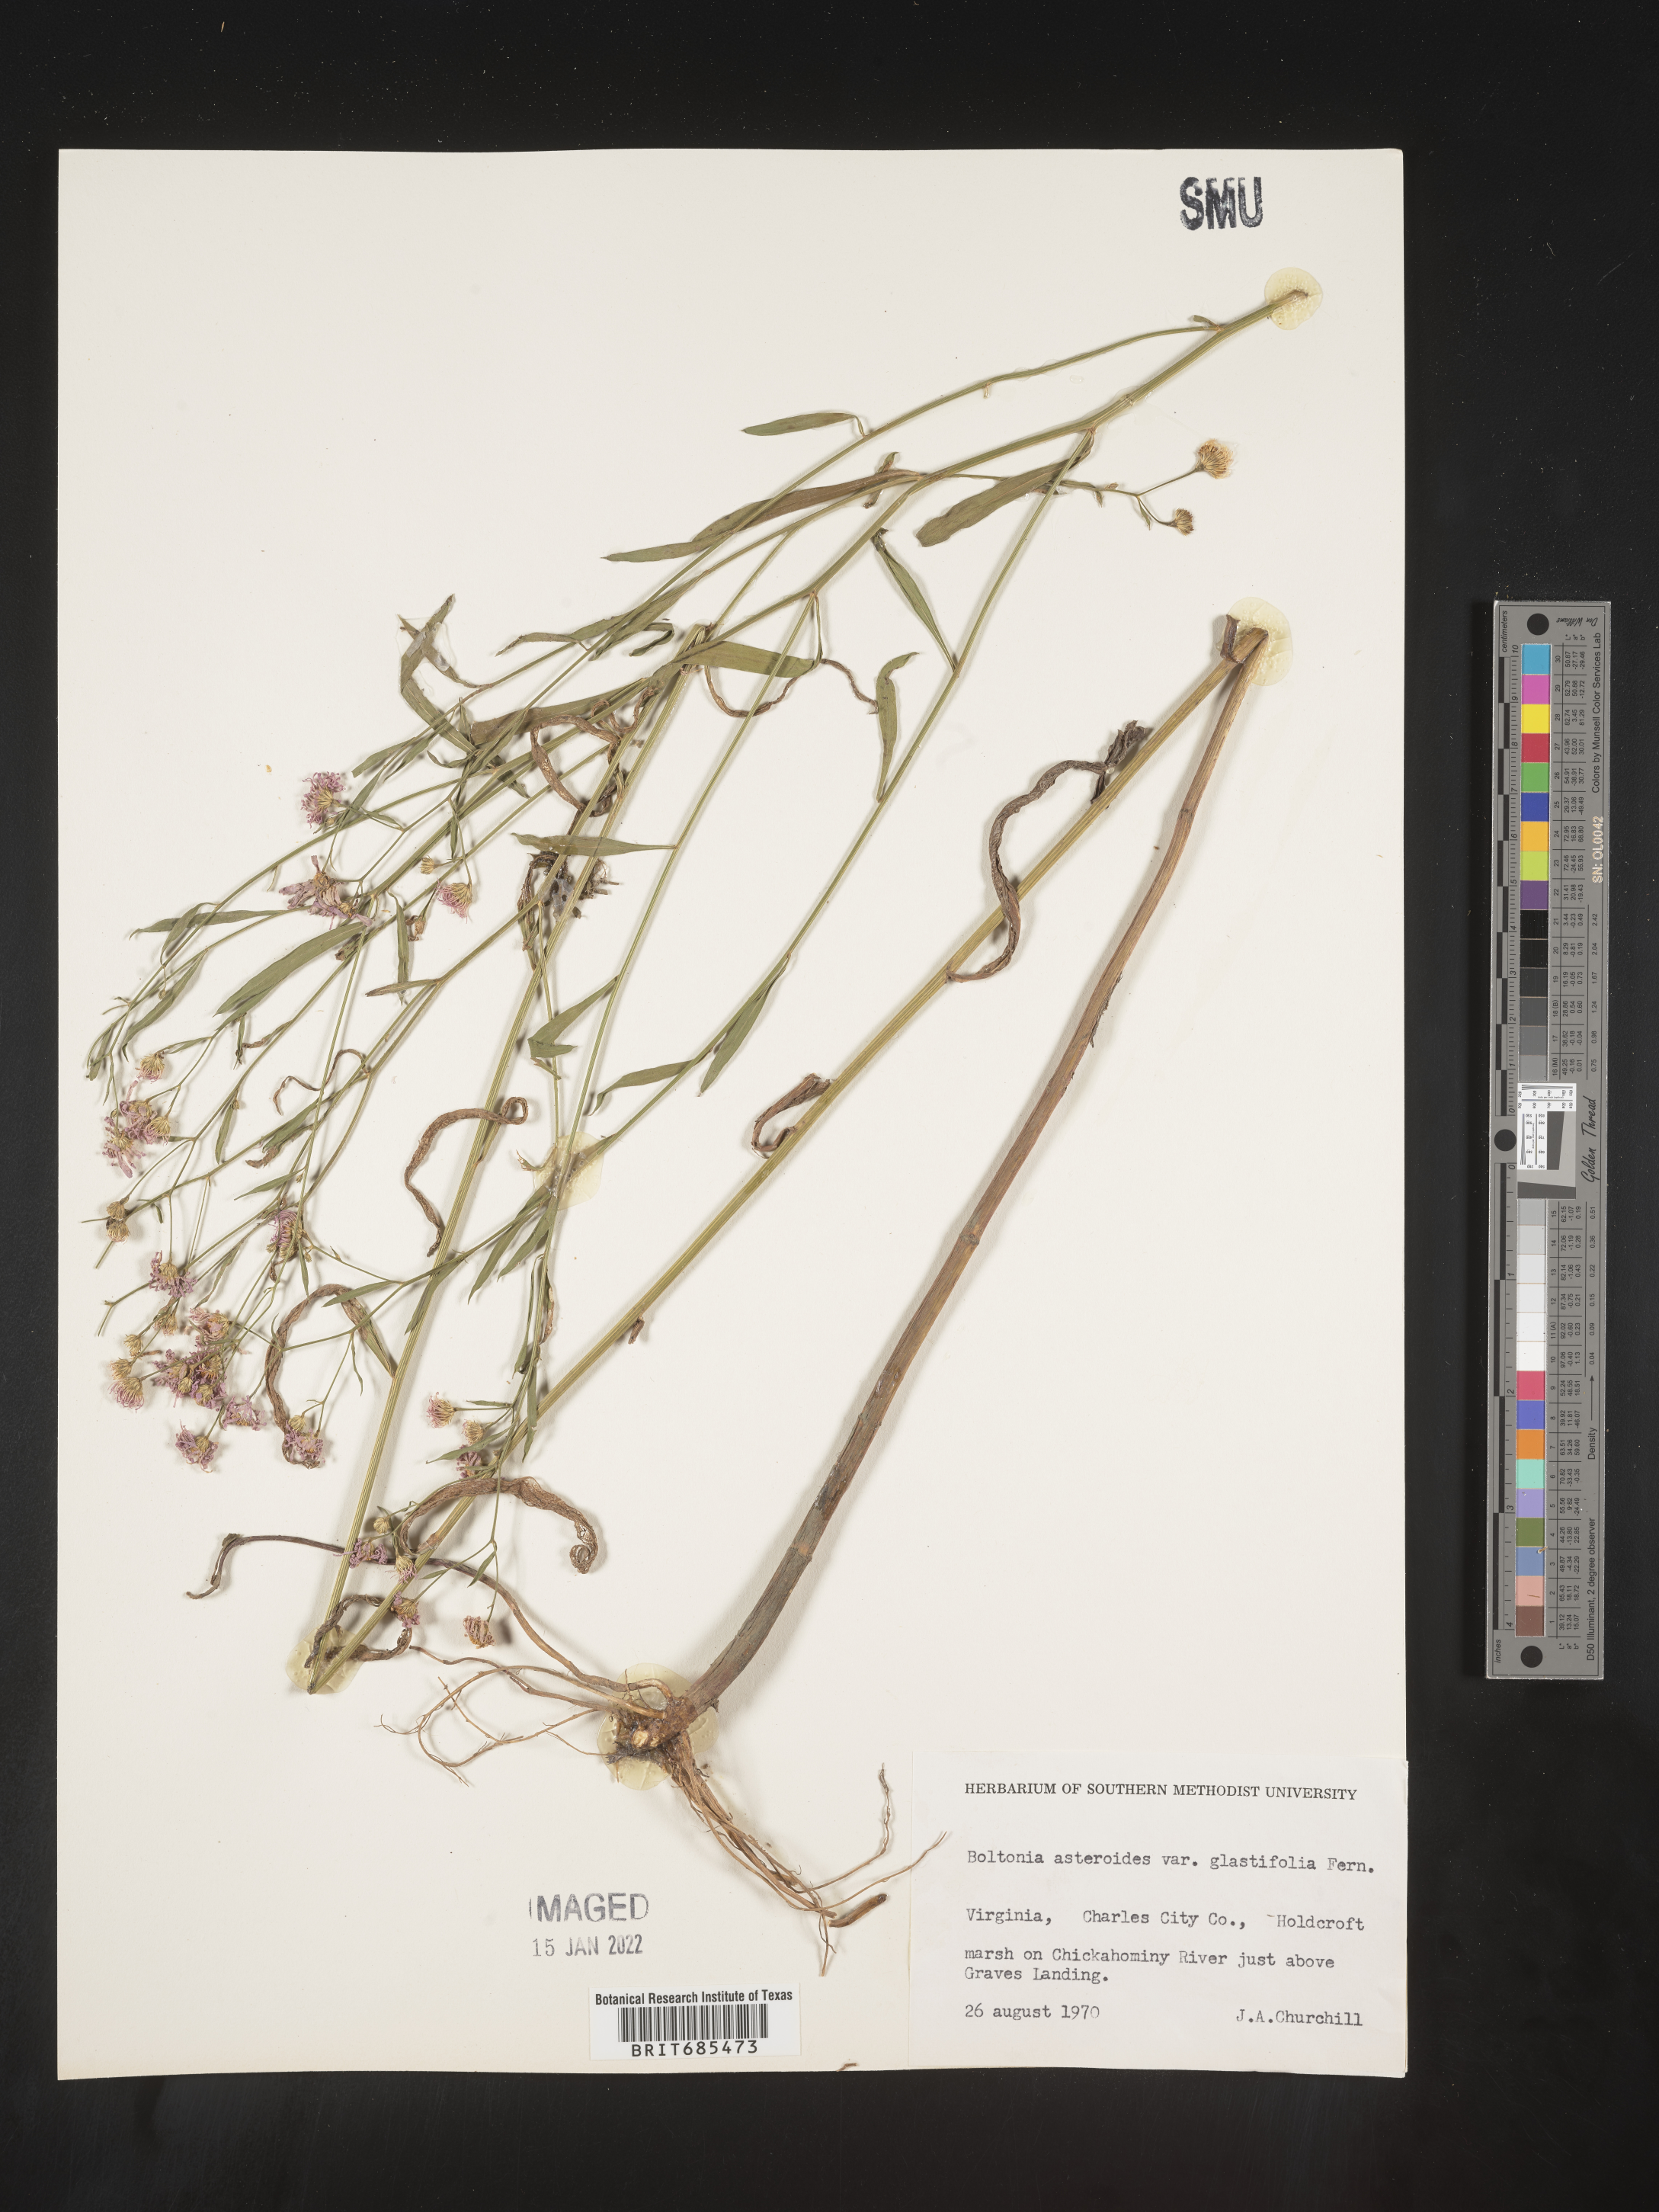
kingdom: Plantae
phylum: Tracheophyta
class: Magnoliopsida
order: Asterales
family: Asteraceae
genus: Boltonia
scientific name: Boltonia asteroides
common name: False chamomile
